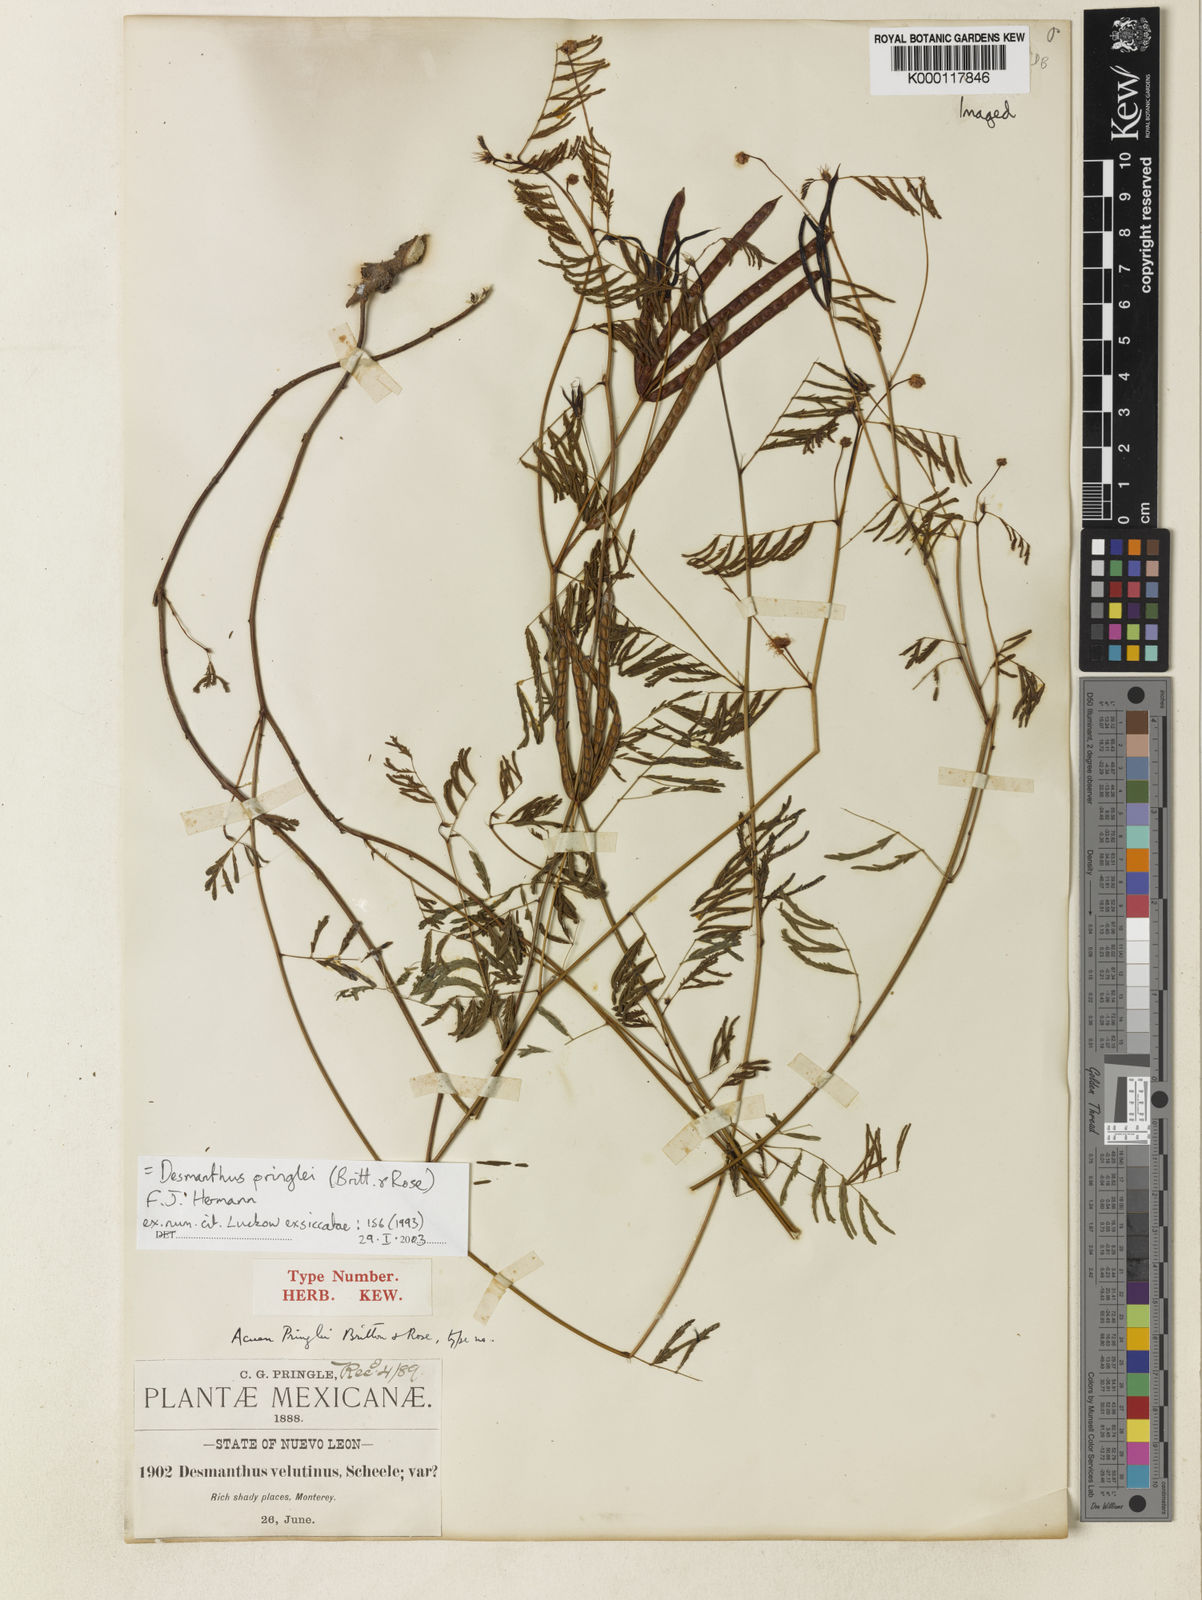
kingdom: Plantae
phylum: Tracheophyta
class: Magnoliopsida
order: Fabales
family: Fabaceae
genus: Desmanthus
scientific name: Desmanthus pringlei
